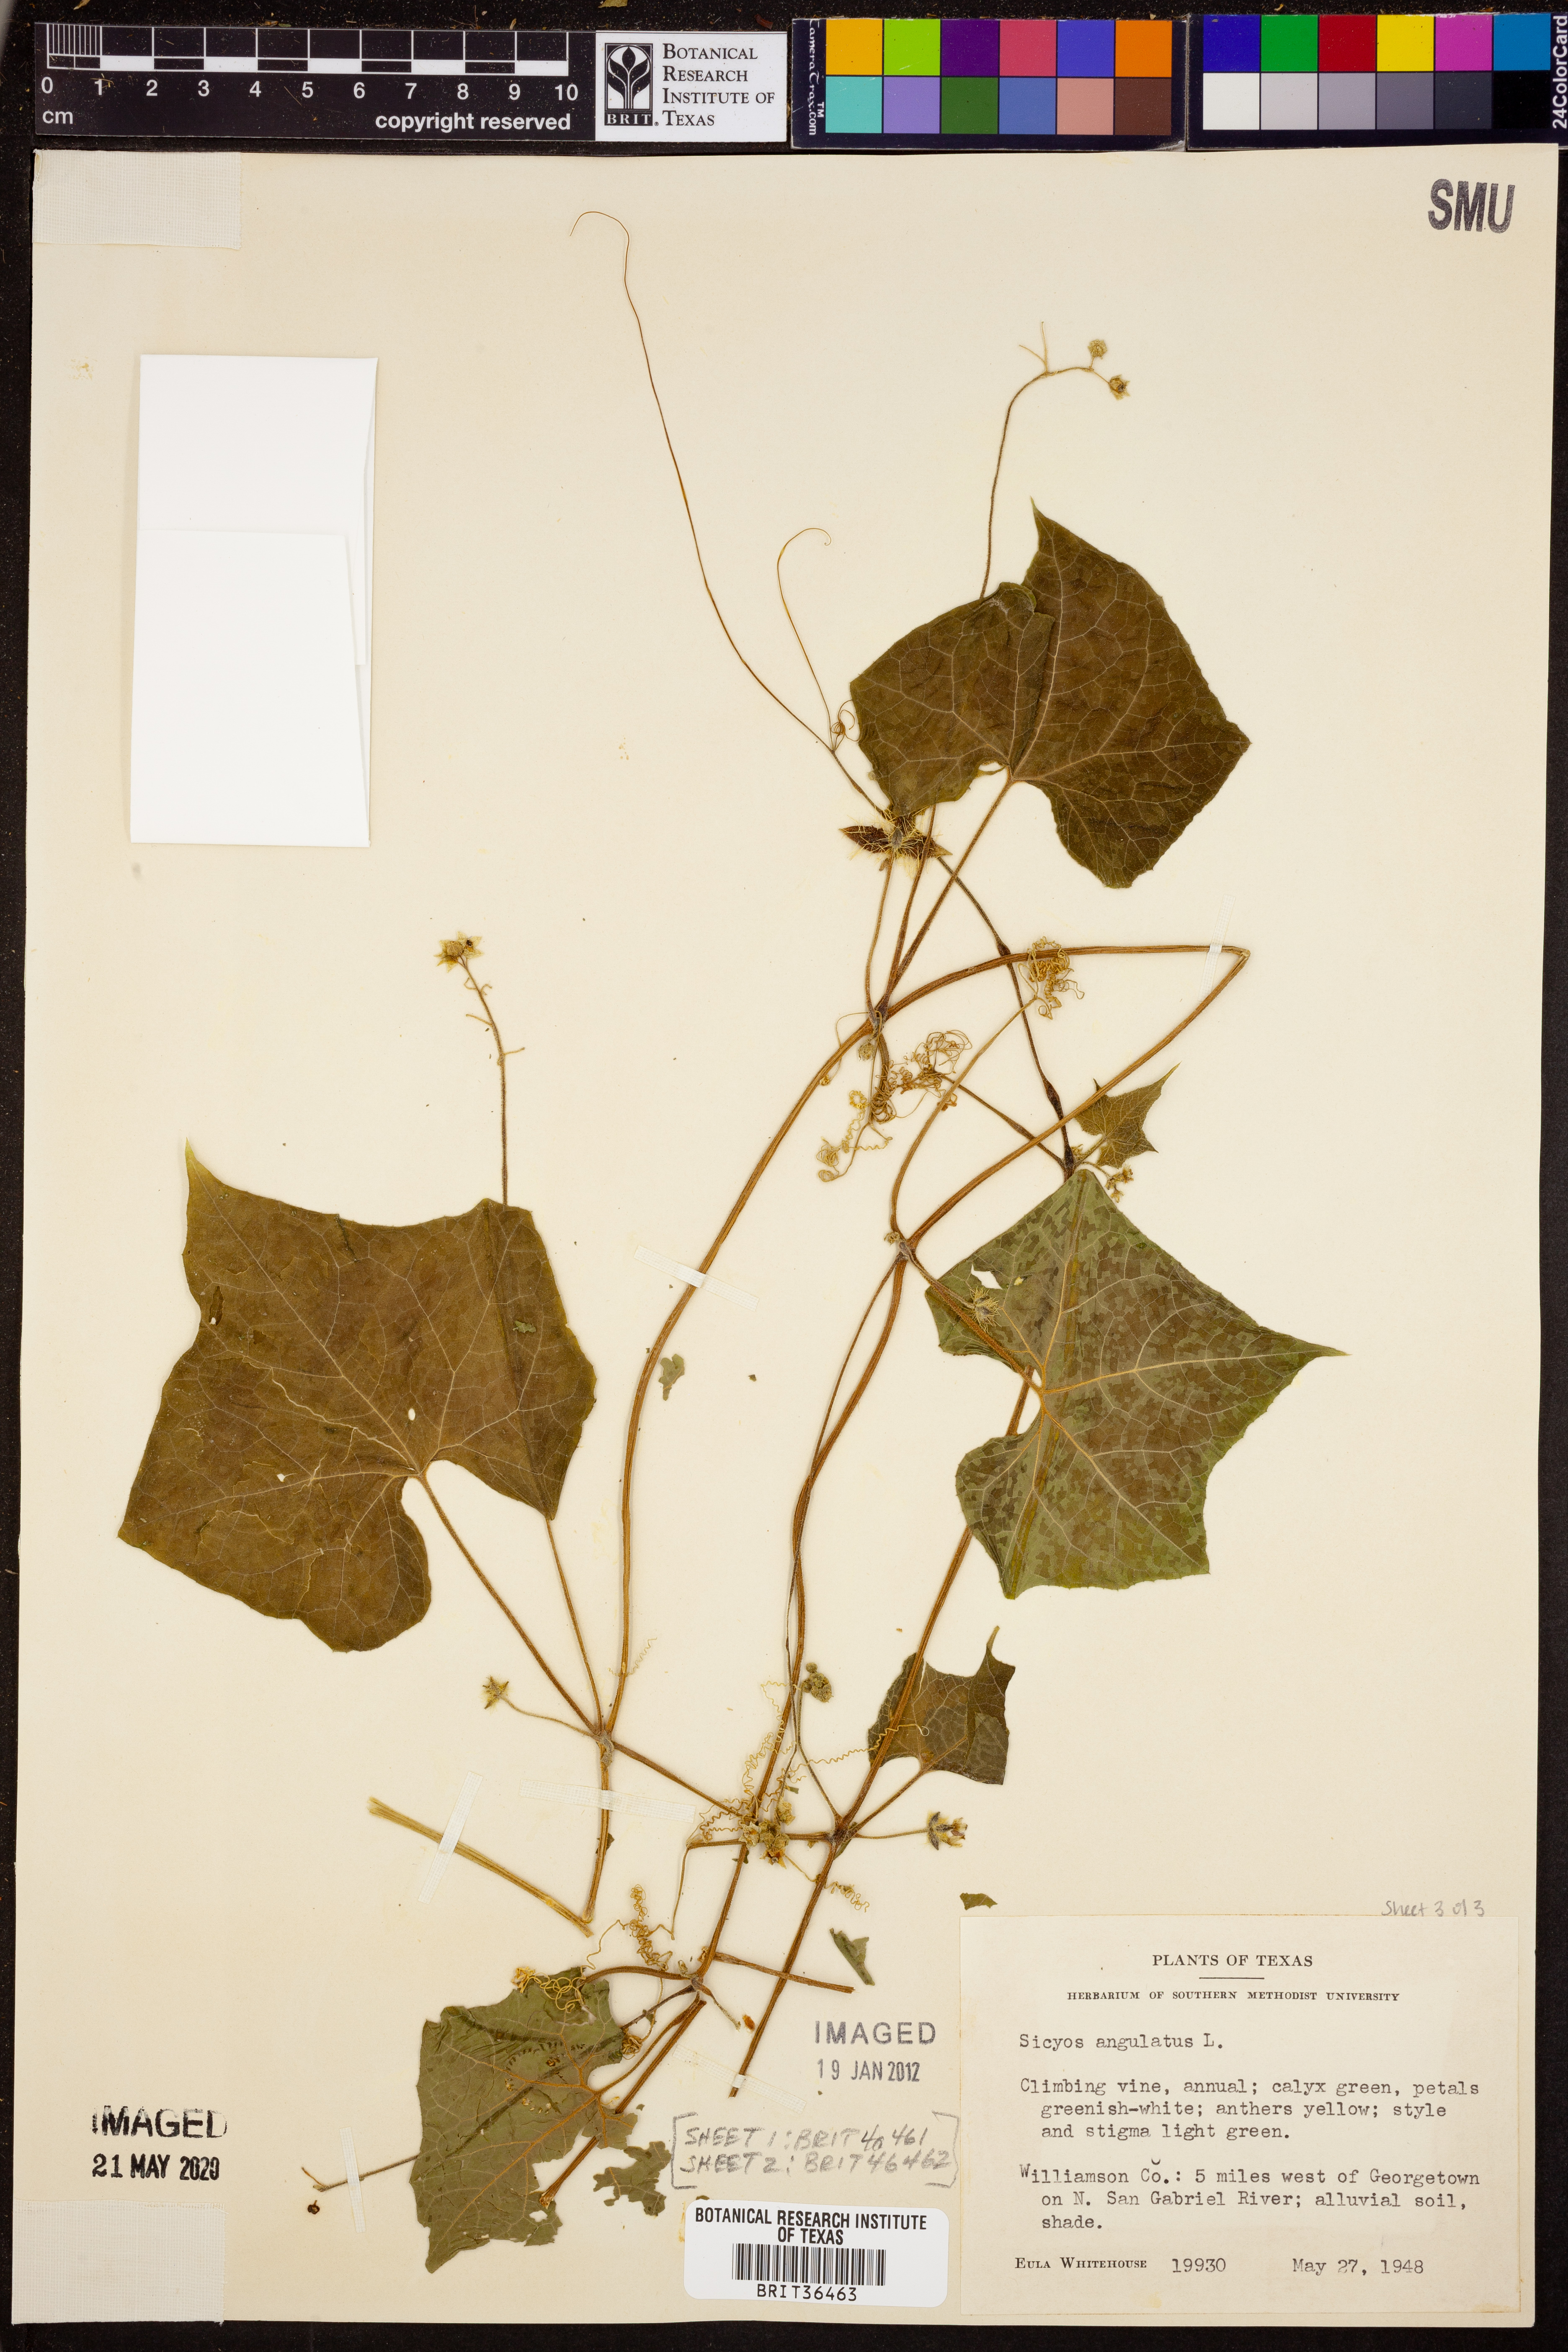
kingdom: Plantae
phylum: Tracheophyta
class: Magnoliopsida
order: Cucurbitales
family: Cucurbitaceae
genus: Sicyos
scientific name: Sicyos angulatus
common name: Angled burr cucumber
